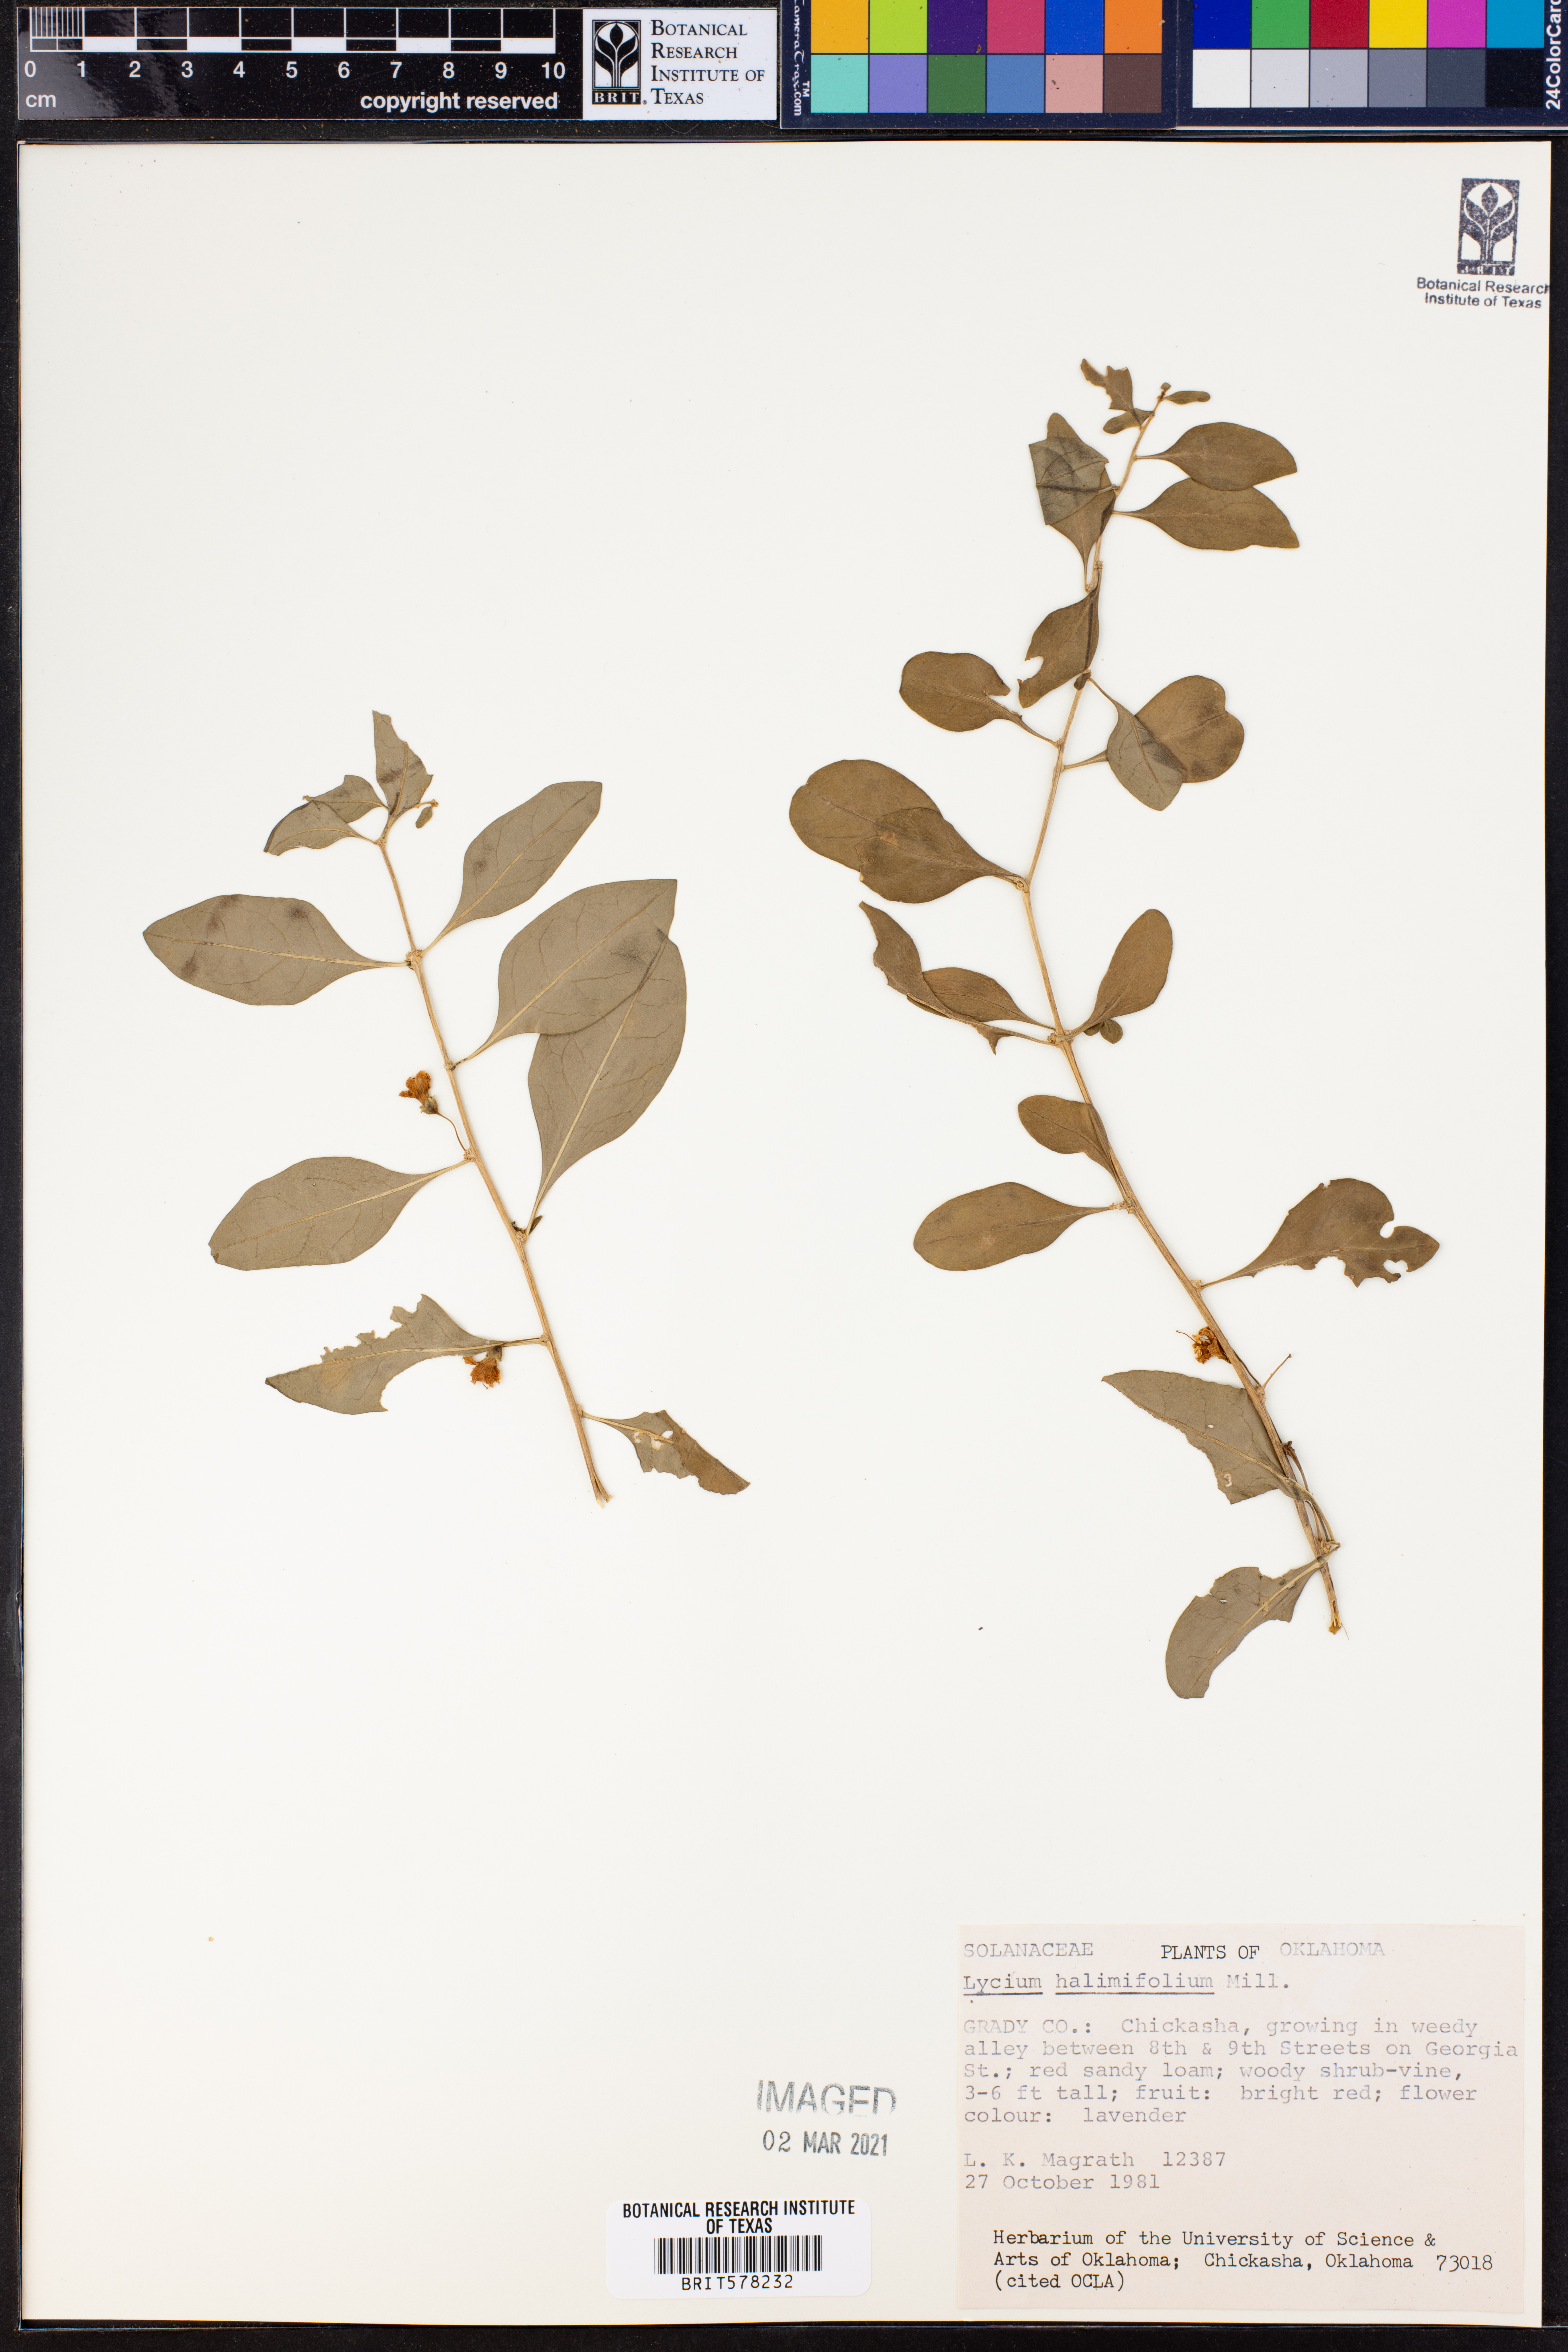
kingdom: Plantae
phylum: Tracheophyta
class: Magnoliopsida
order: Solanales
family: Solanaceae
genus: Lycium
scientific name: Lycium barbarum
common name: Duke of argyll's teaplant
